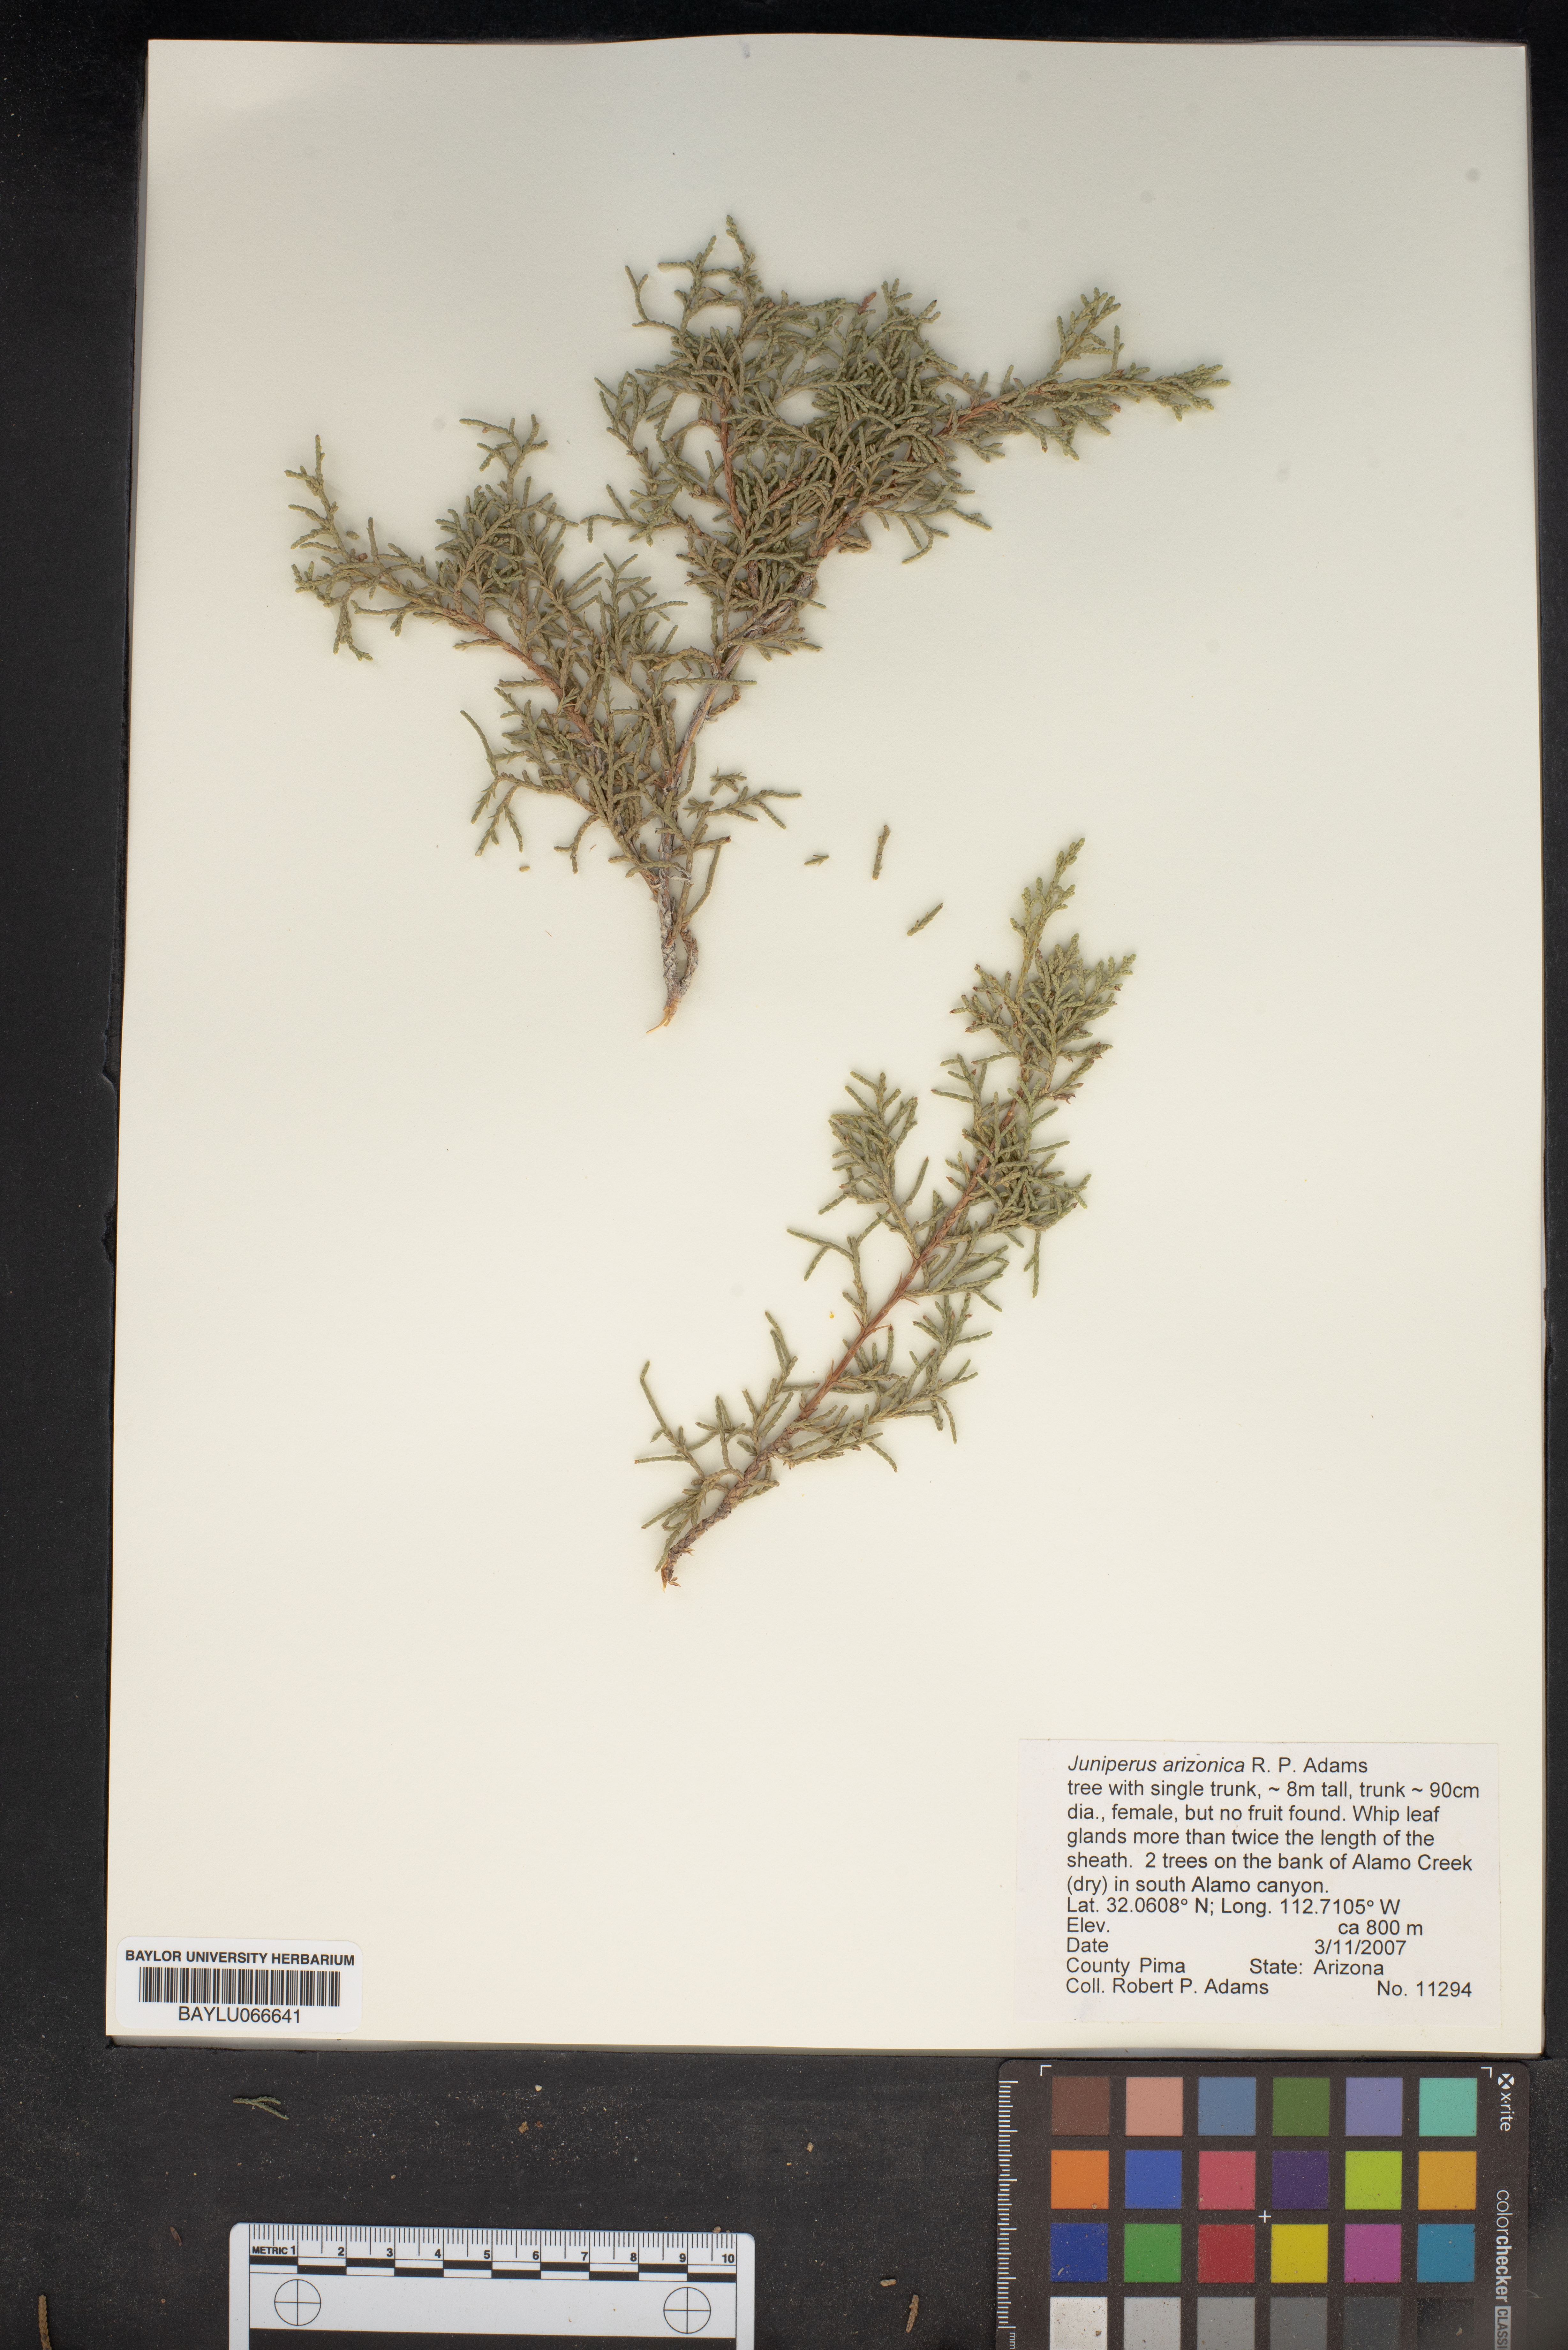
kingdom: Plantae
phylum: Tracheophyta
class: Pinopsida
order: Pinales
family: Cupressaceae
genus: Juniperus
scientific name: Juniperus arizonica
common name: Arizona juniper
